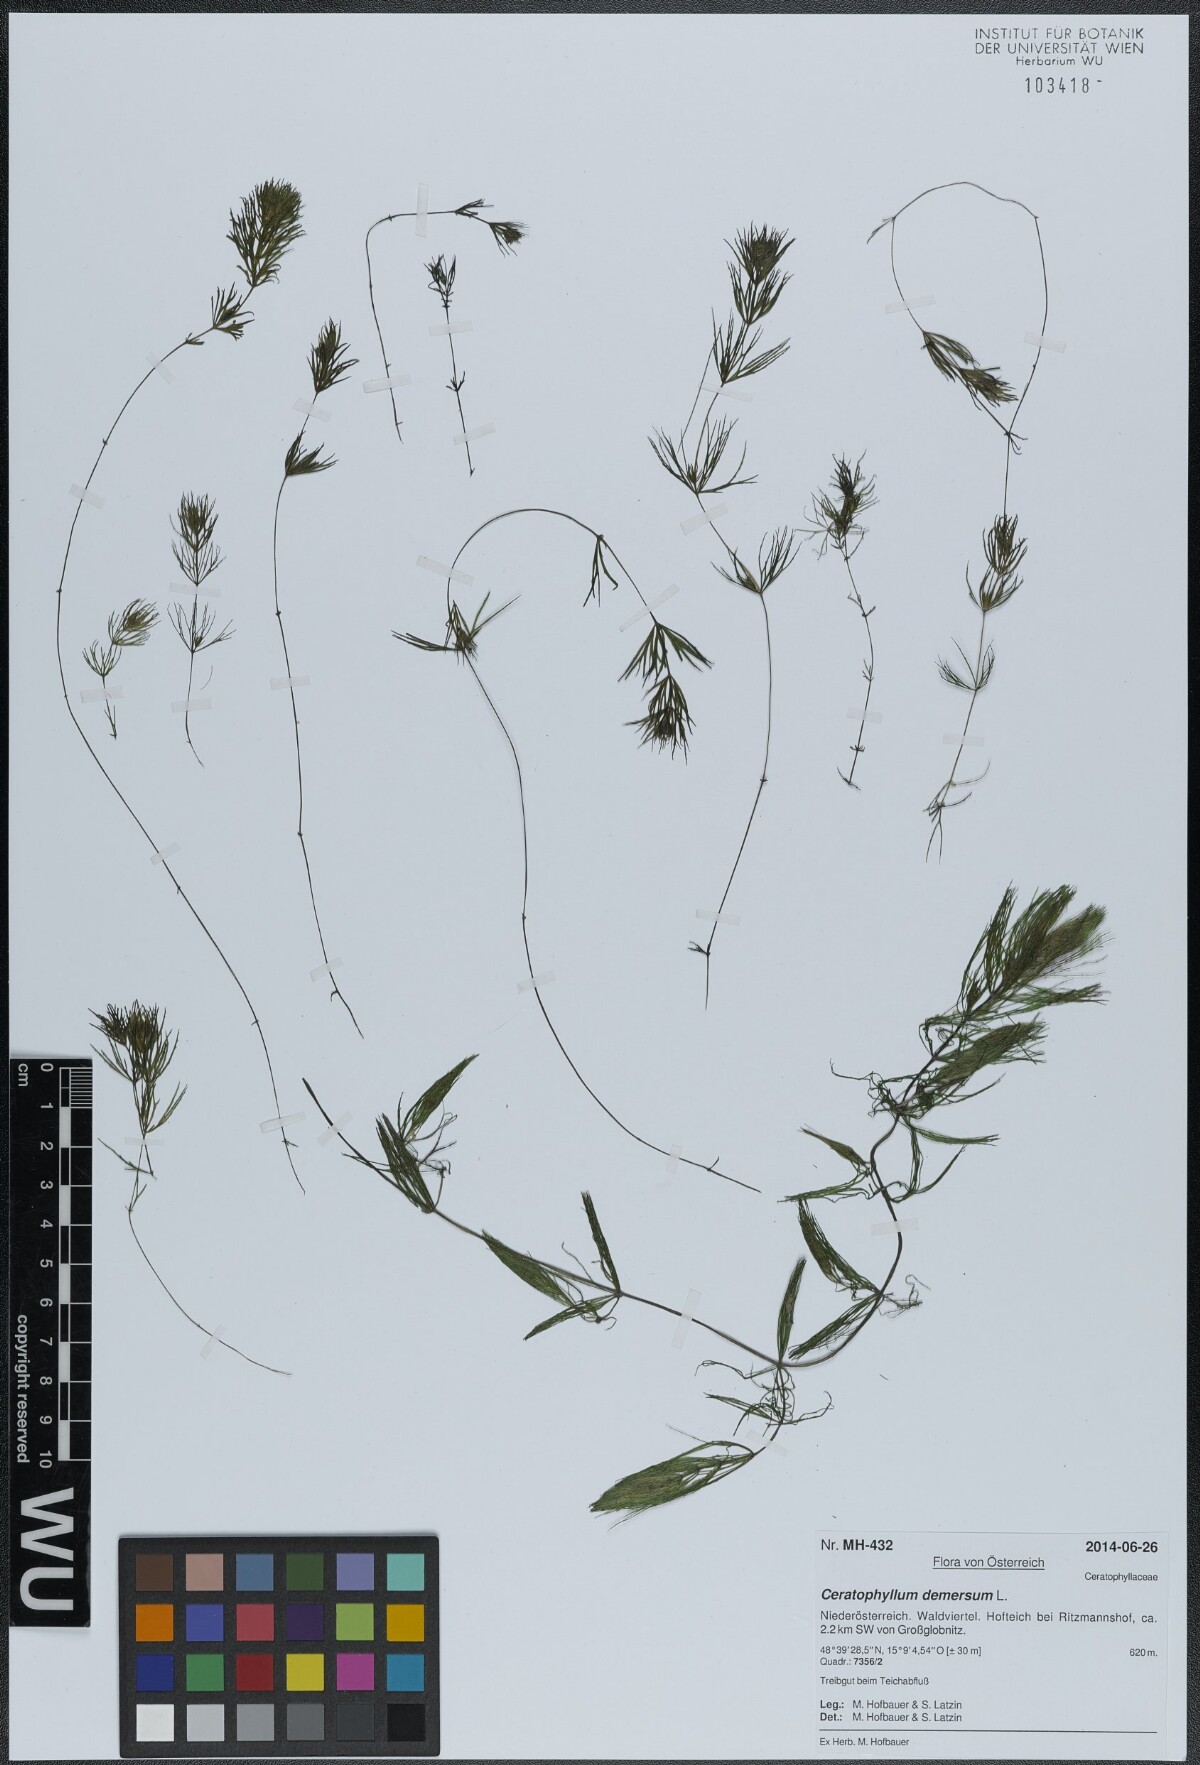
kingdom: Plantae
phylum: Tracheophyta
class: Magnoliopsida
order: Ceratophyllales
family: Ceratophyllaceae
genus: Ceratophyllum
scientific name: Ceratophyllum demersum
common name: Rigid hornwort
